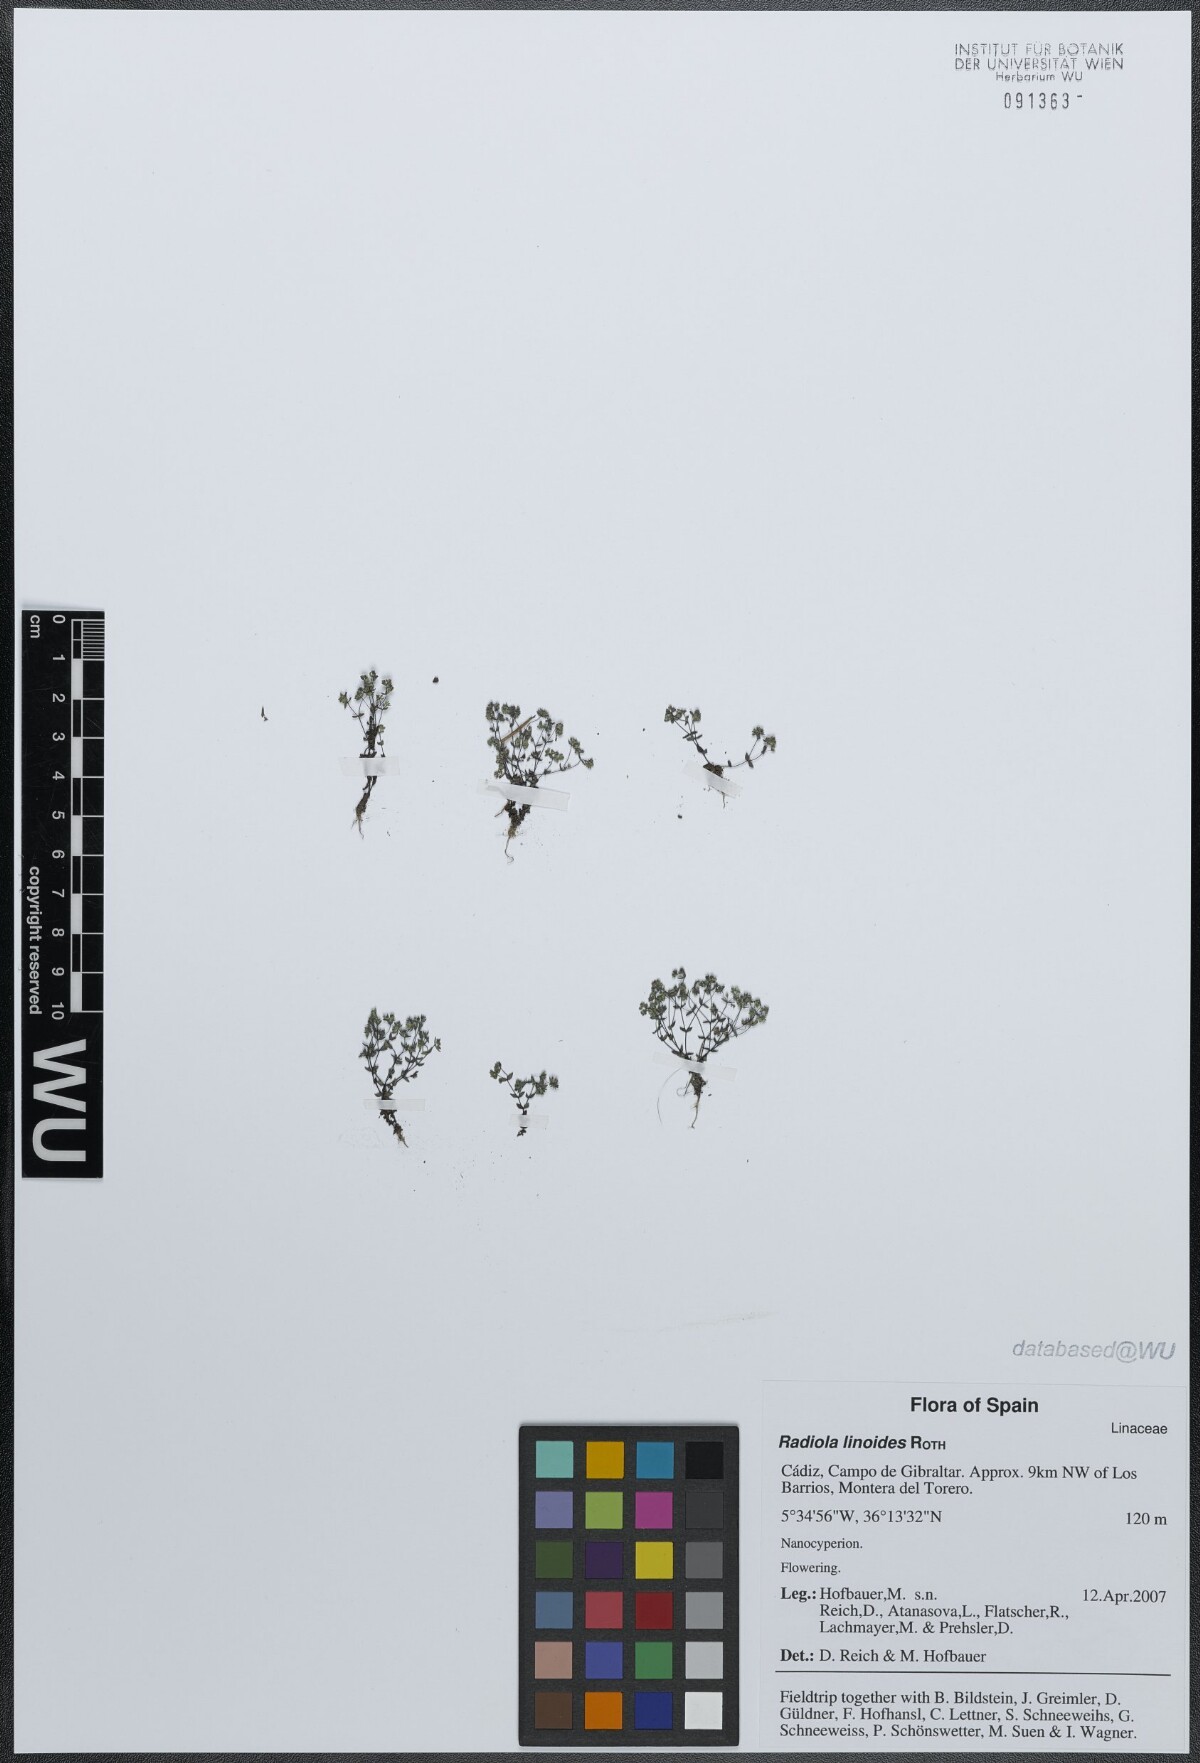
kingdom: Plantae
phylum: Tracheophyta
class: Magnoliopsida
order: Malpighiales
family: Linaceae
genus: Radiola
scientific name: Radiola linoides
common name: Allseed
